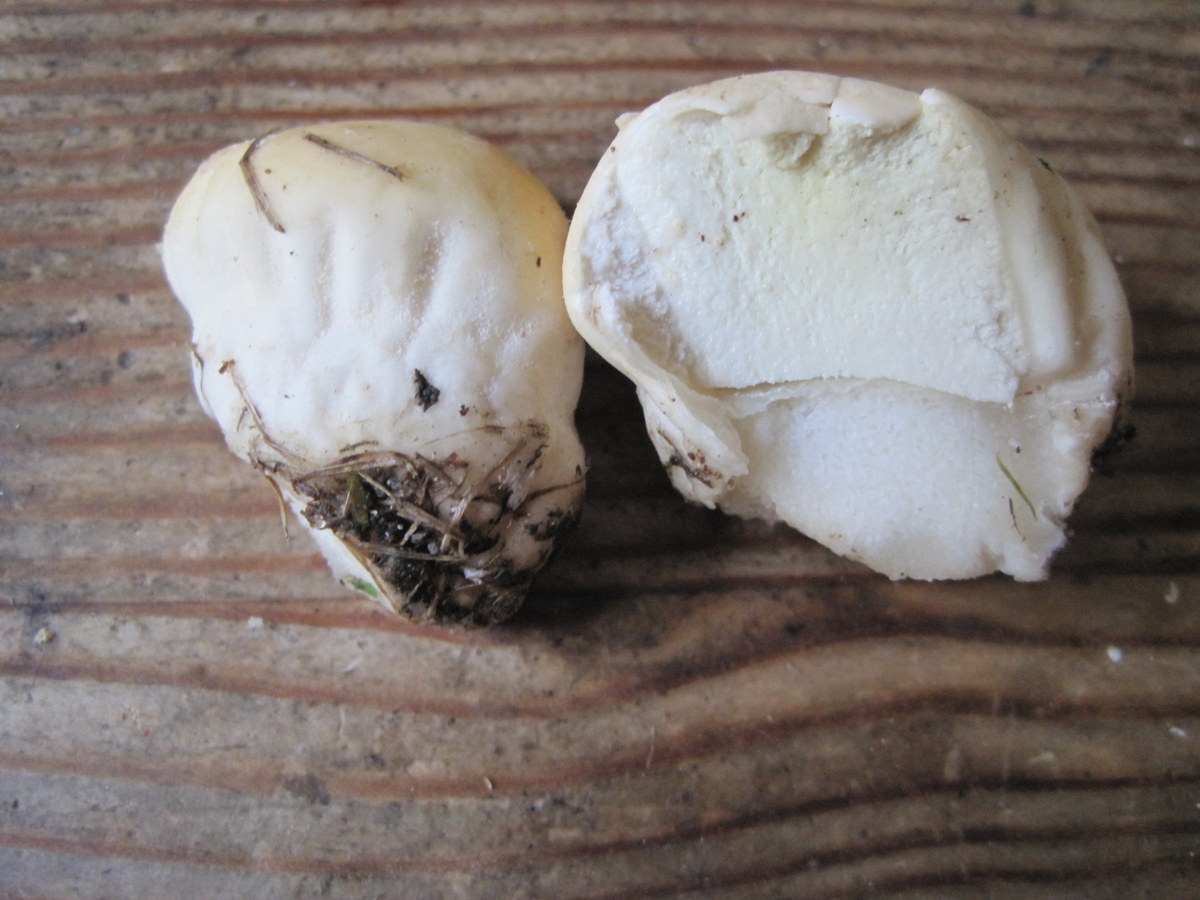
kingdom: Fungi
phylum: Basidiomycota
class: Agaricomycetes
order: Agaricales
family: Lycoperdaceae
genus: Lycoperdon
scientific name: Lycoperdon pratense
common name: flad støvbold
